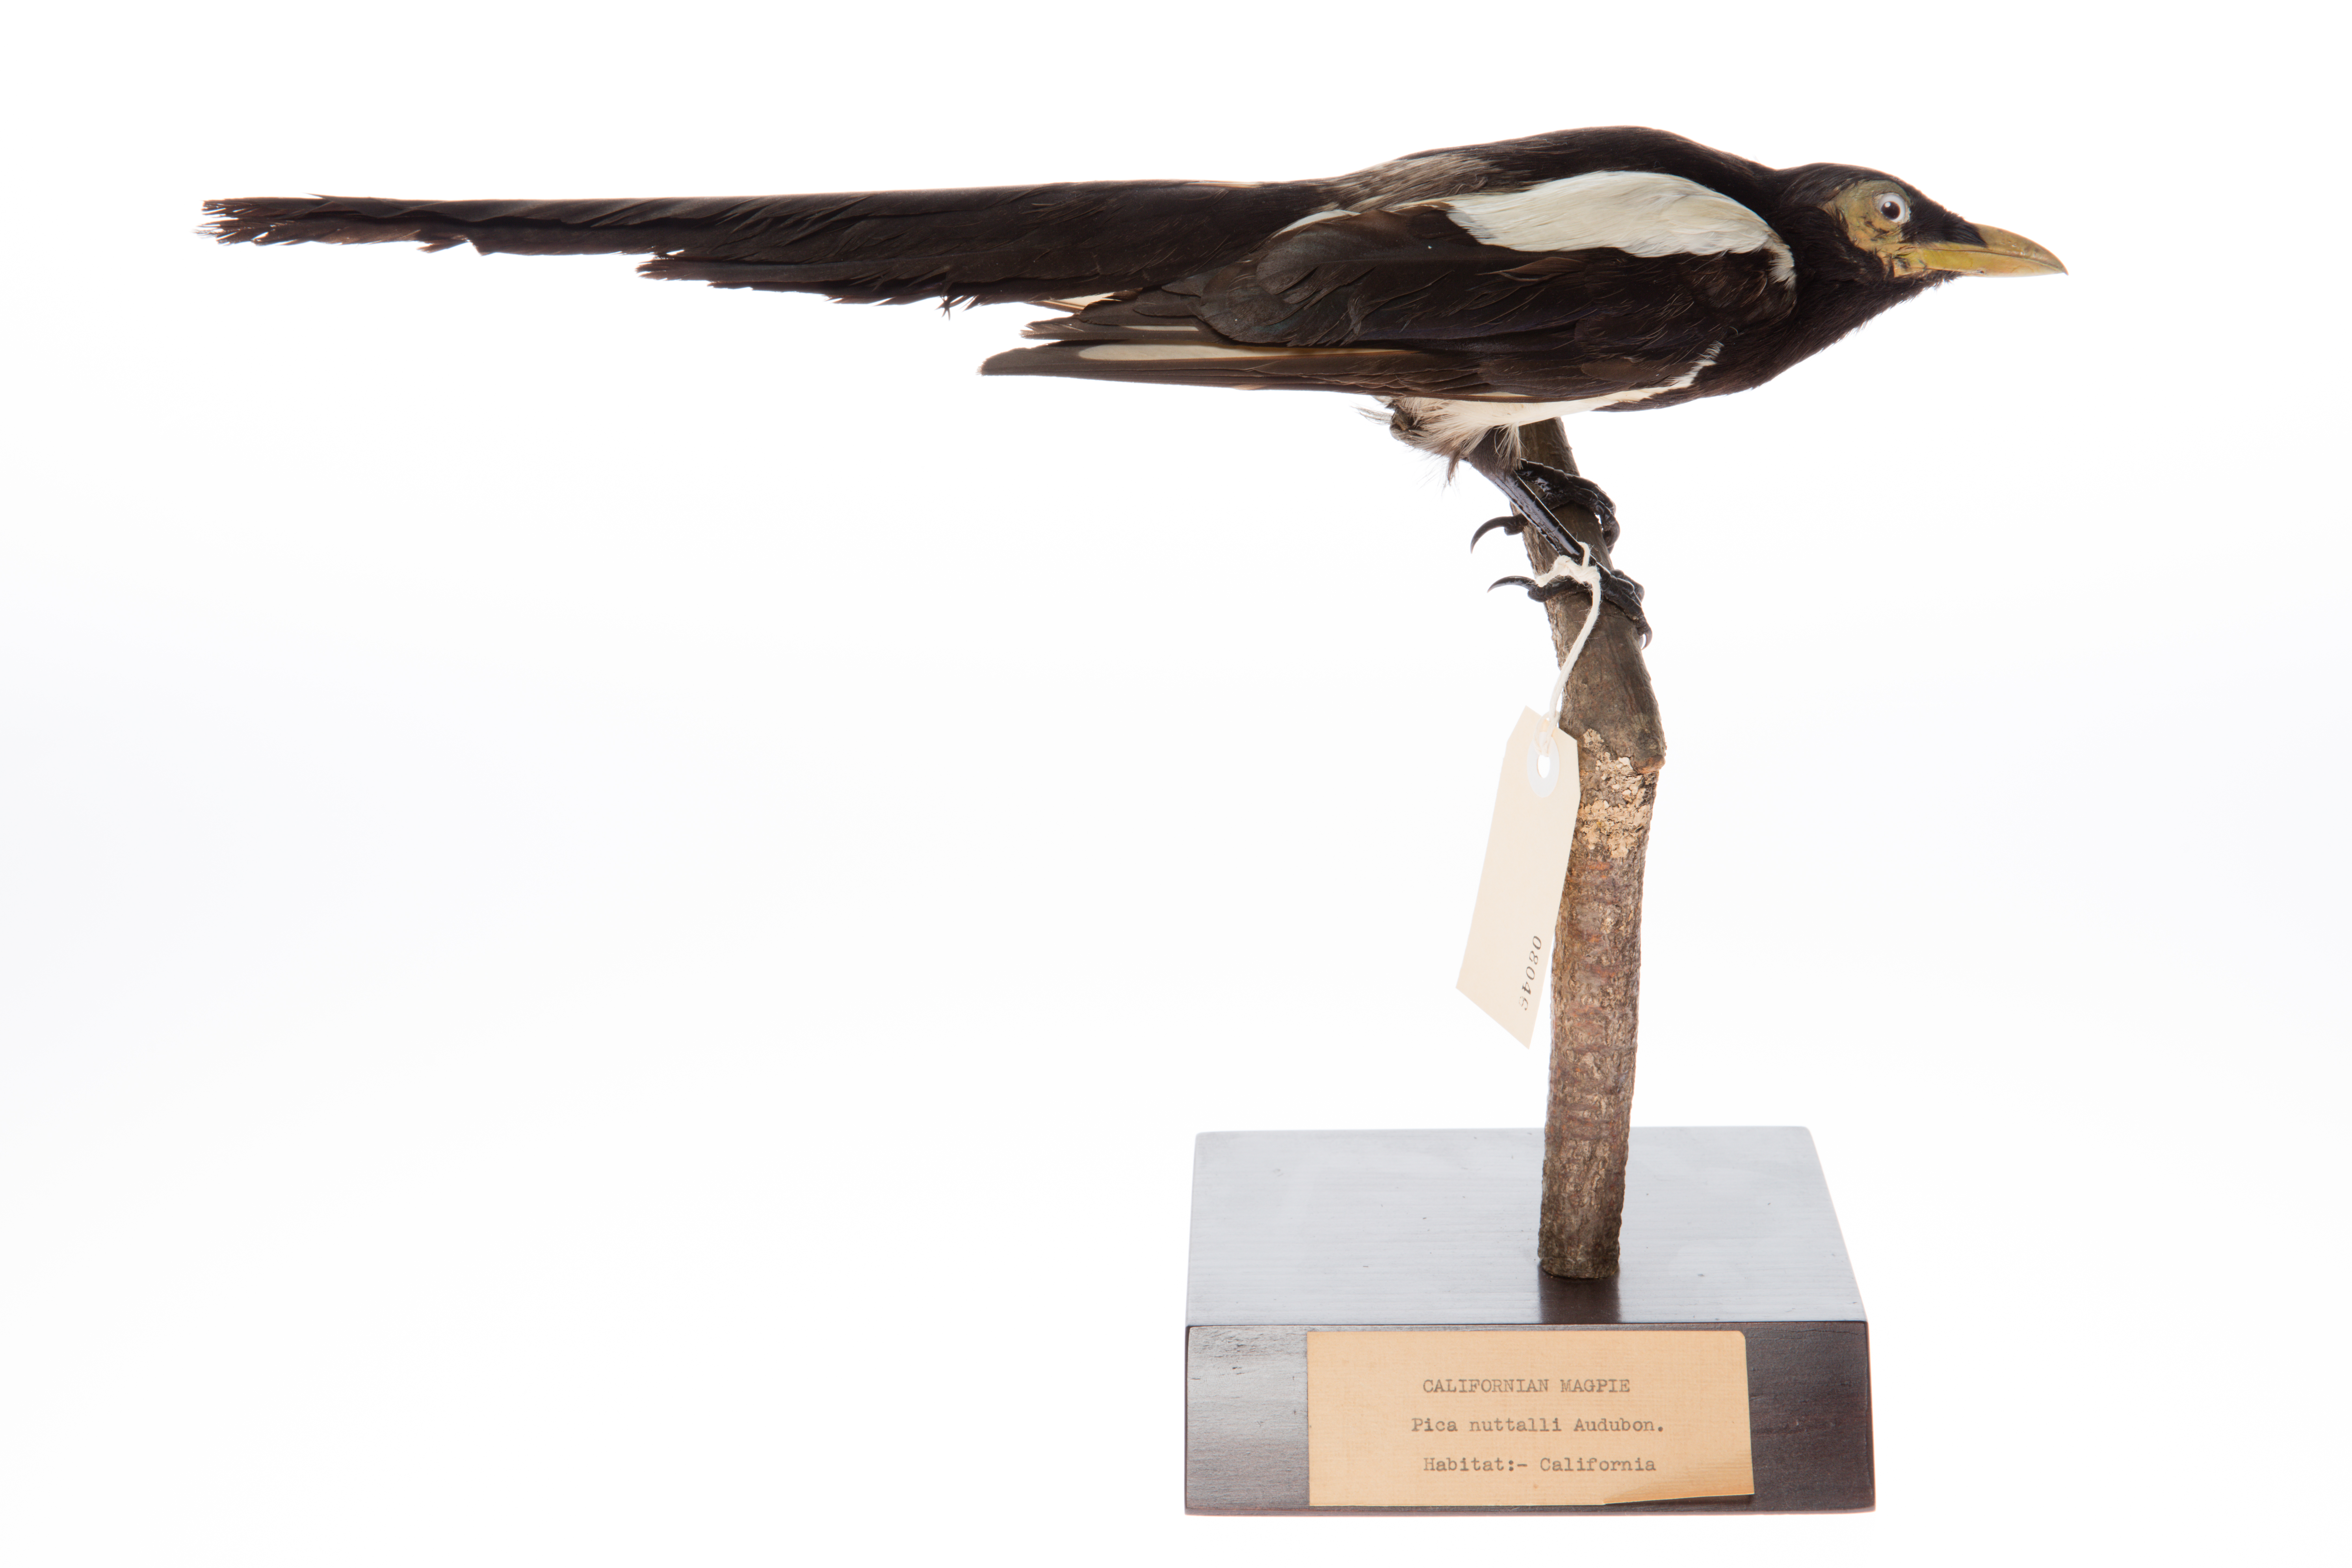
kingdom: Animalia
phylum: Chordata
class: Aves
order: Passeriformes
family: Corvidae
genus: Pica
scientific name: Pica nuttalli
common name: Yellow-billed magpie
